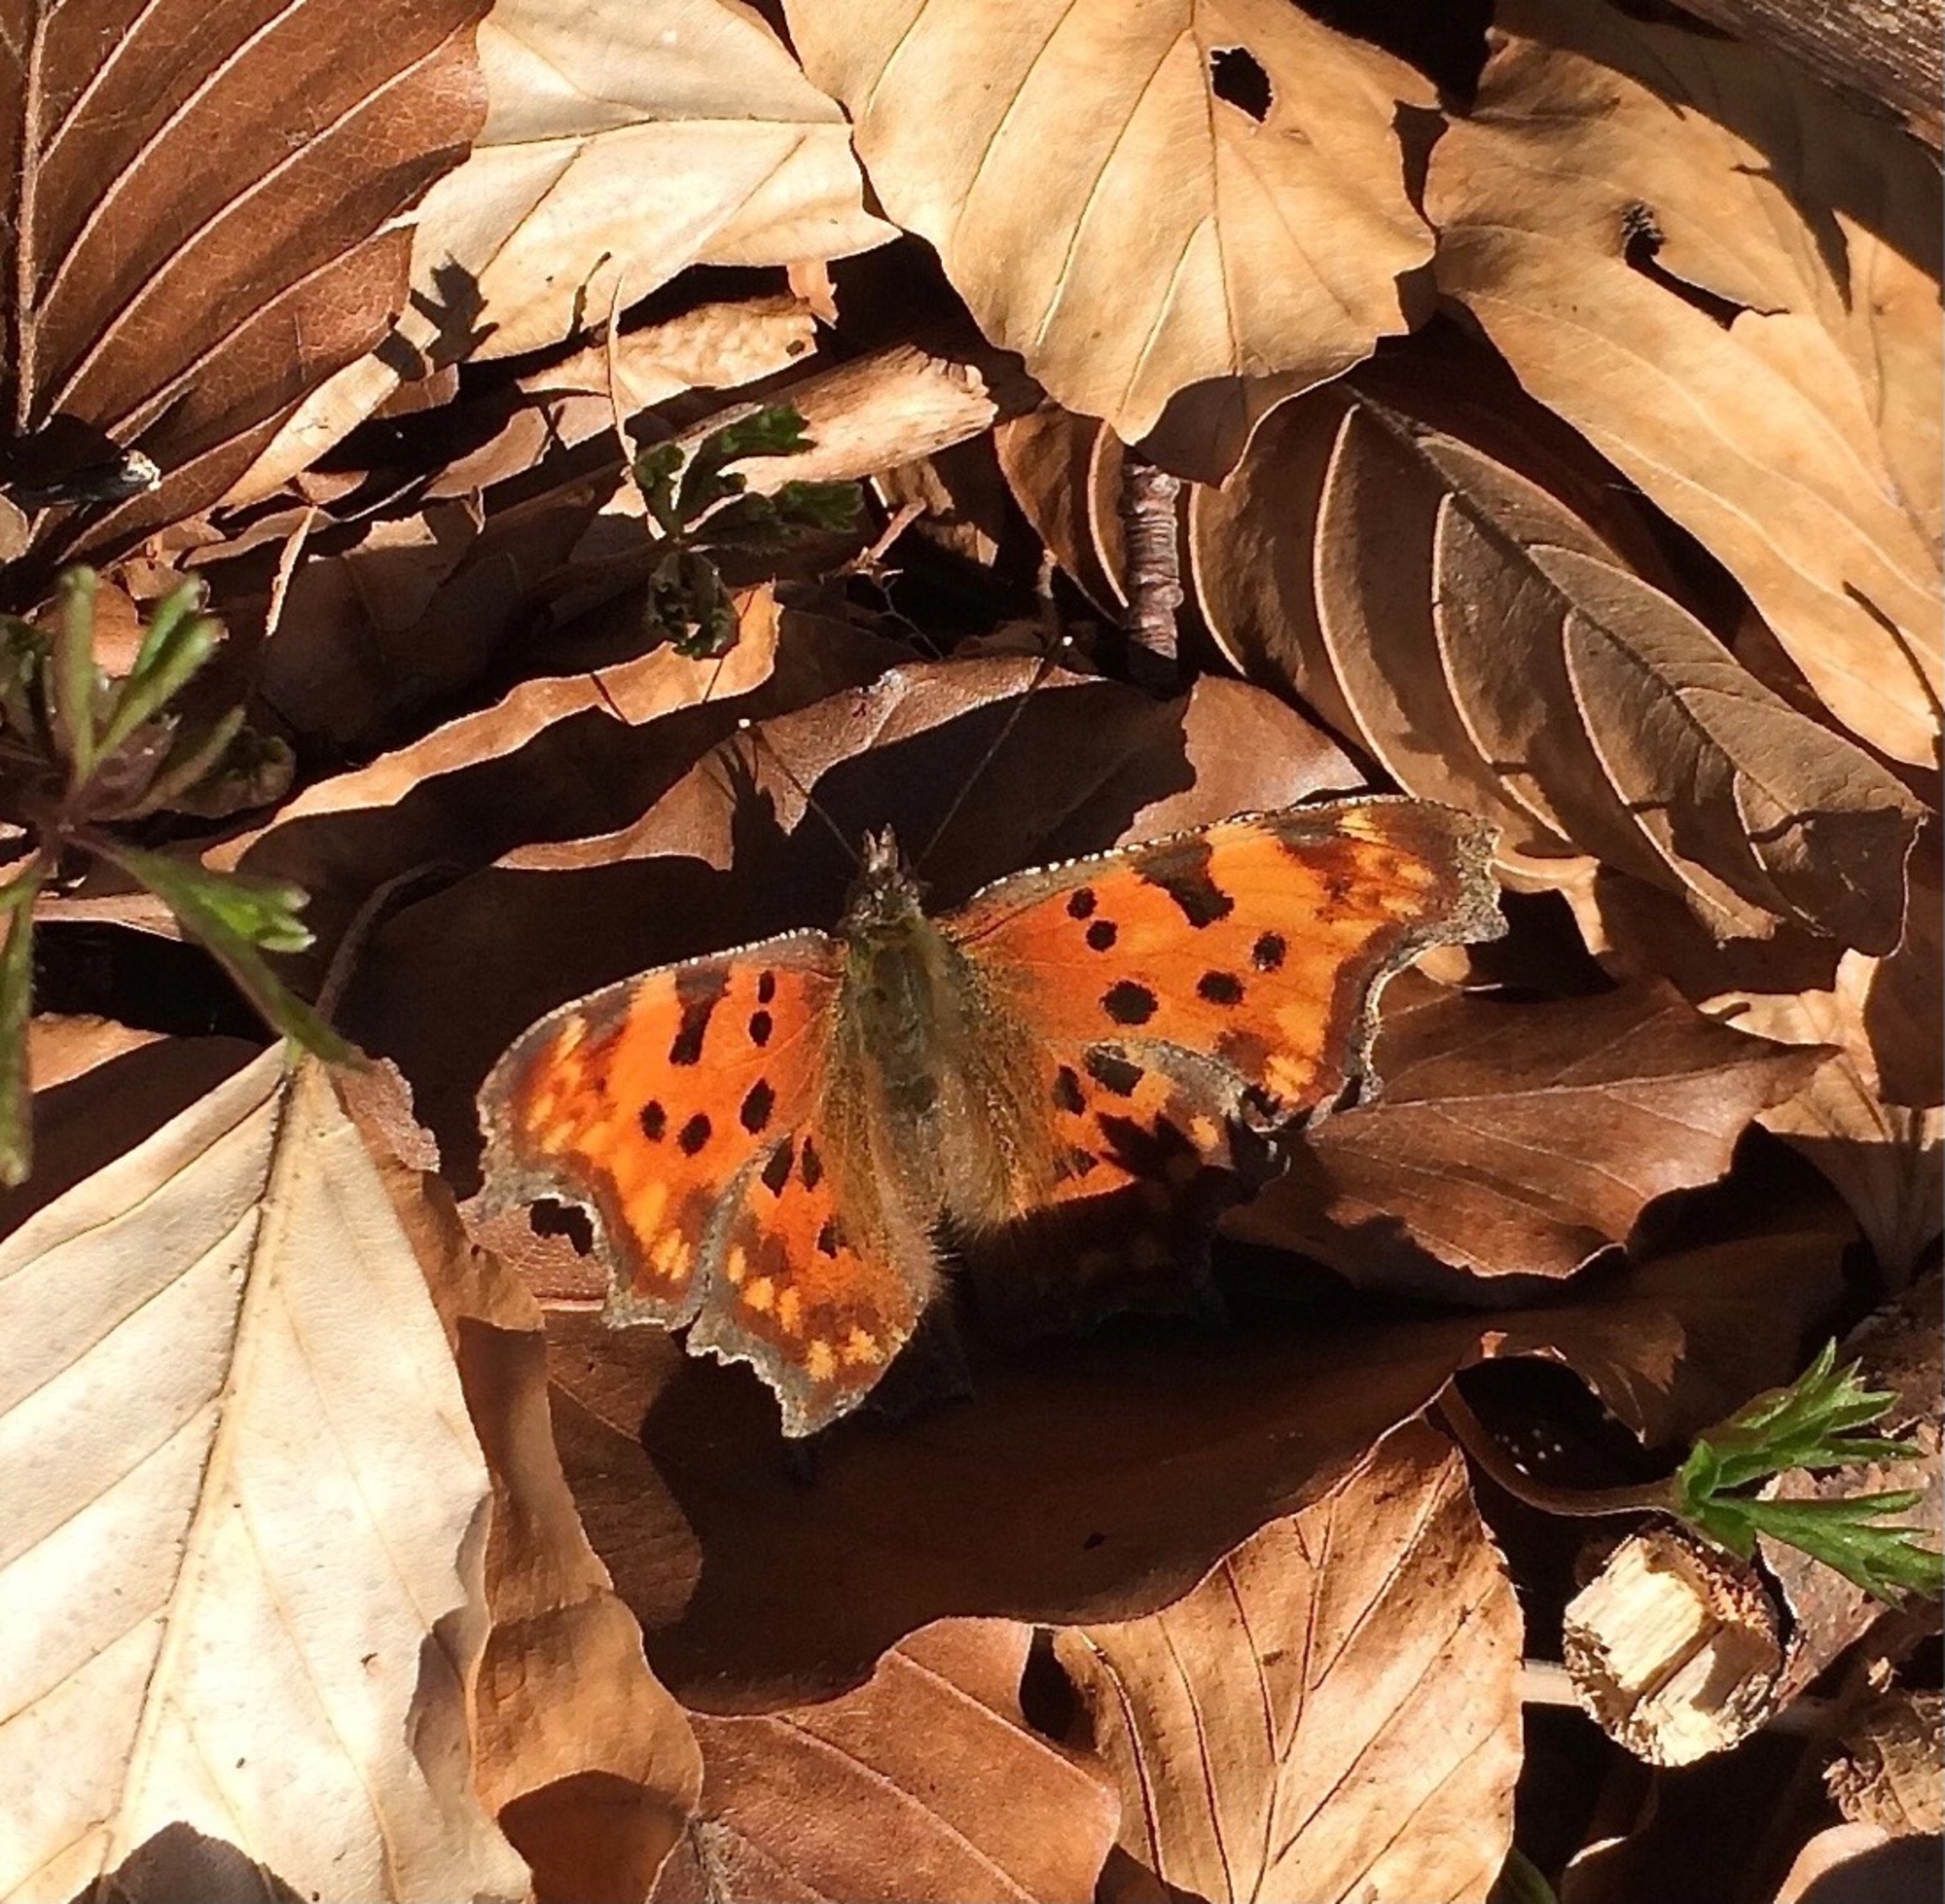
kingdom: Animalia
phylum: Arthropoda
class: Insecta
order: Lepidoptera
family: Nymphalidae
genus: Polygonia
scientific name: Polygonia c-album
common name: Det hvide C
